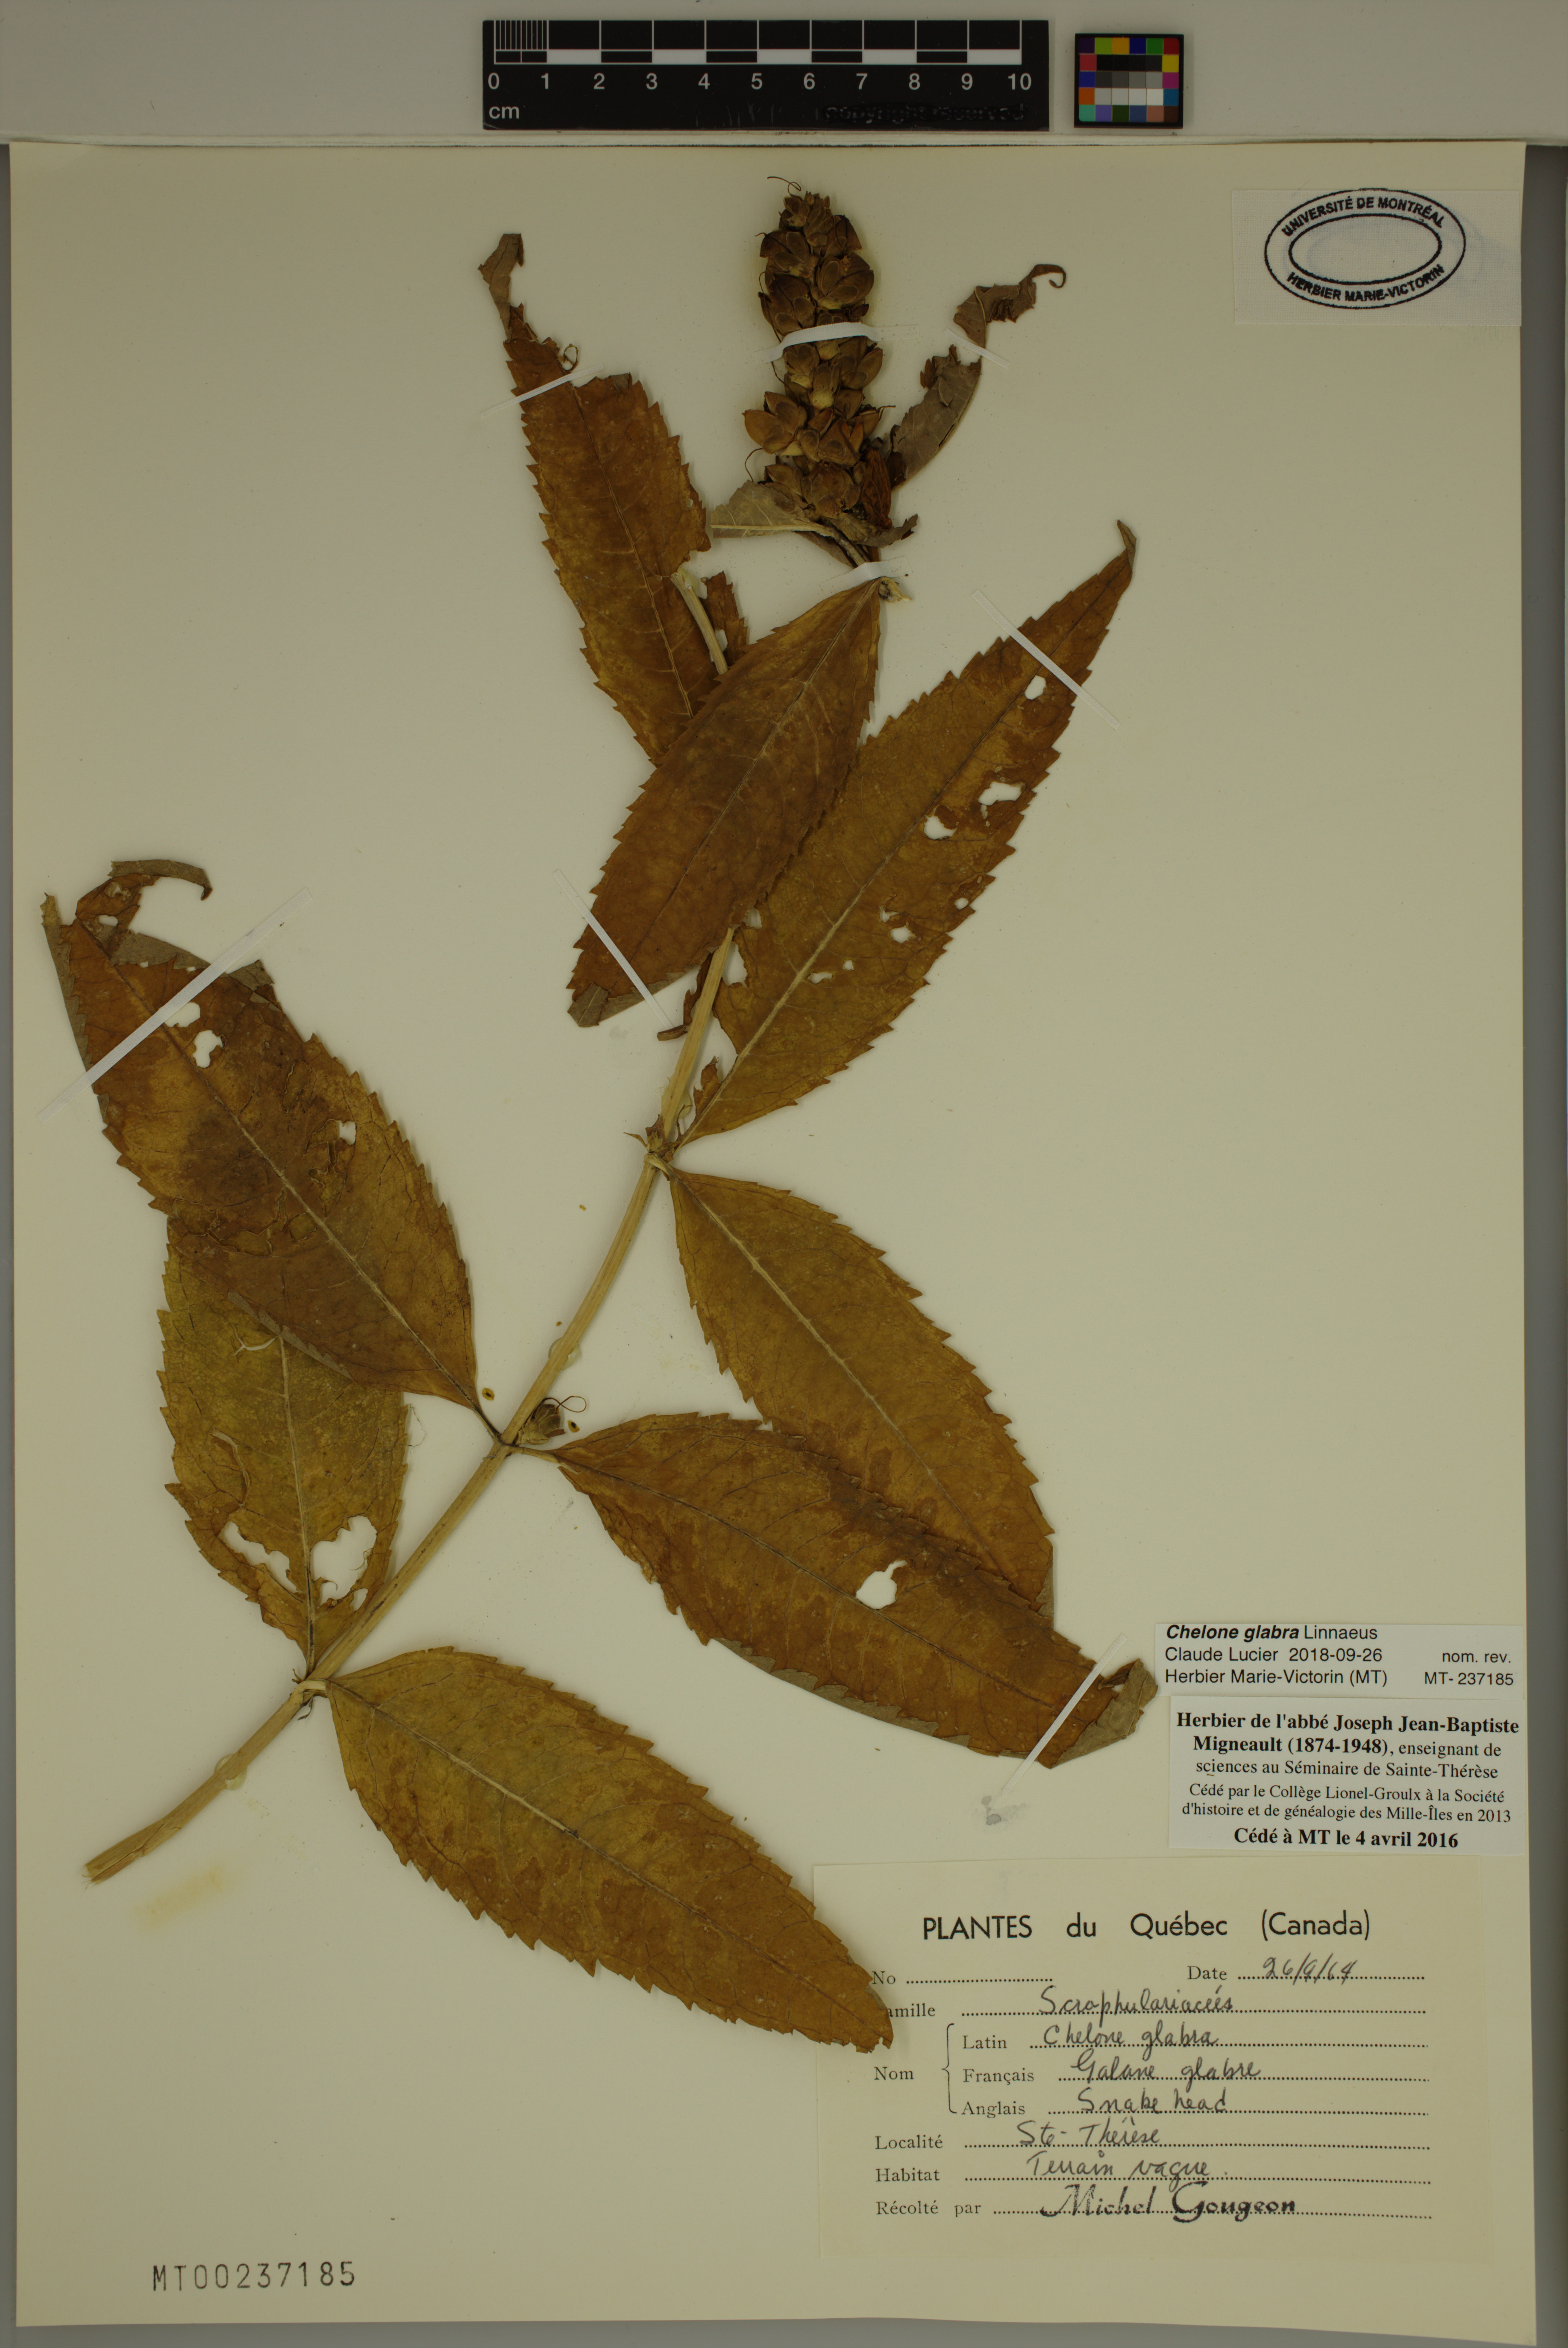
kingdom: Plantae
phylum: Tracheophyta
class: Magnoliopsida
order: Lamiales
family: Plantaginaceae
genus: Chelone
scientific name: Chelone glabra
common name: Snakehead
